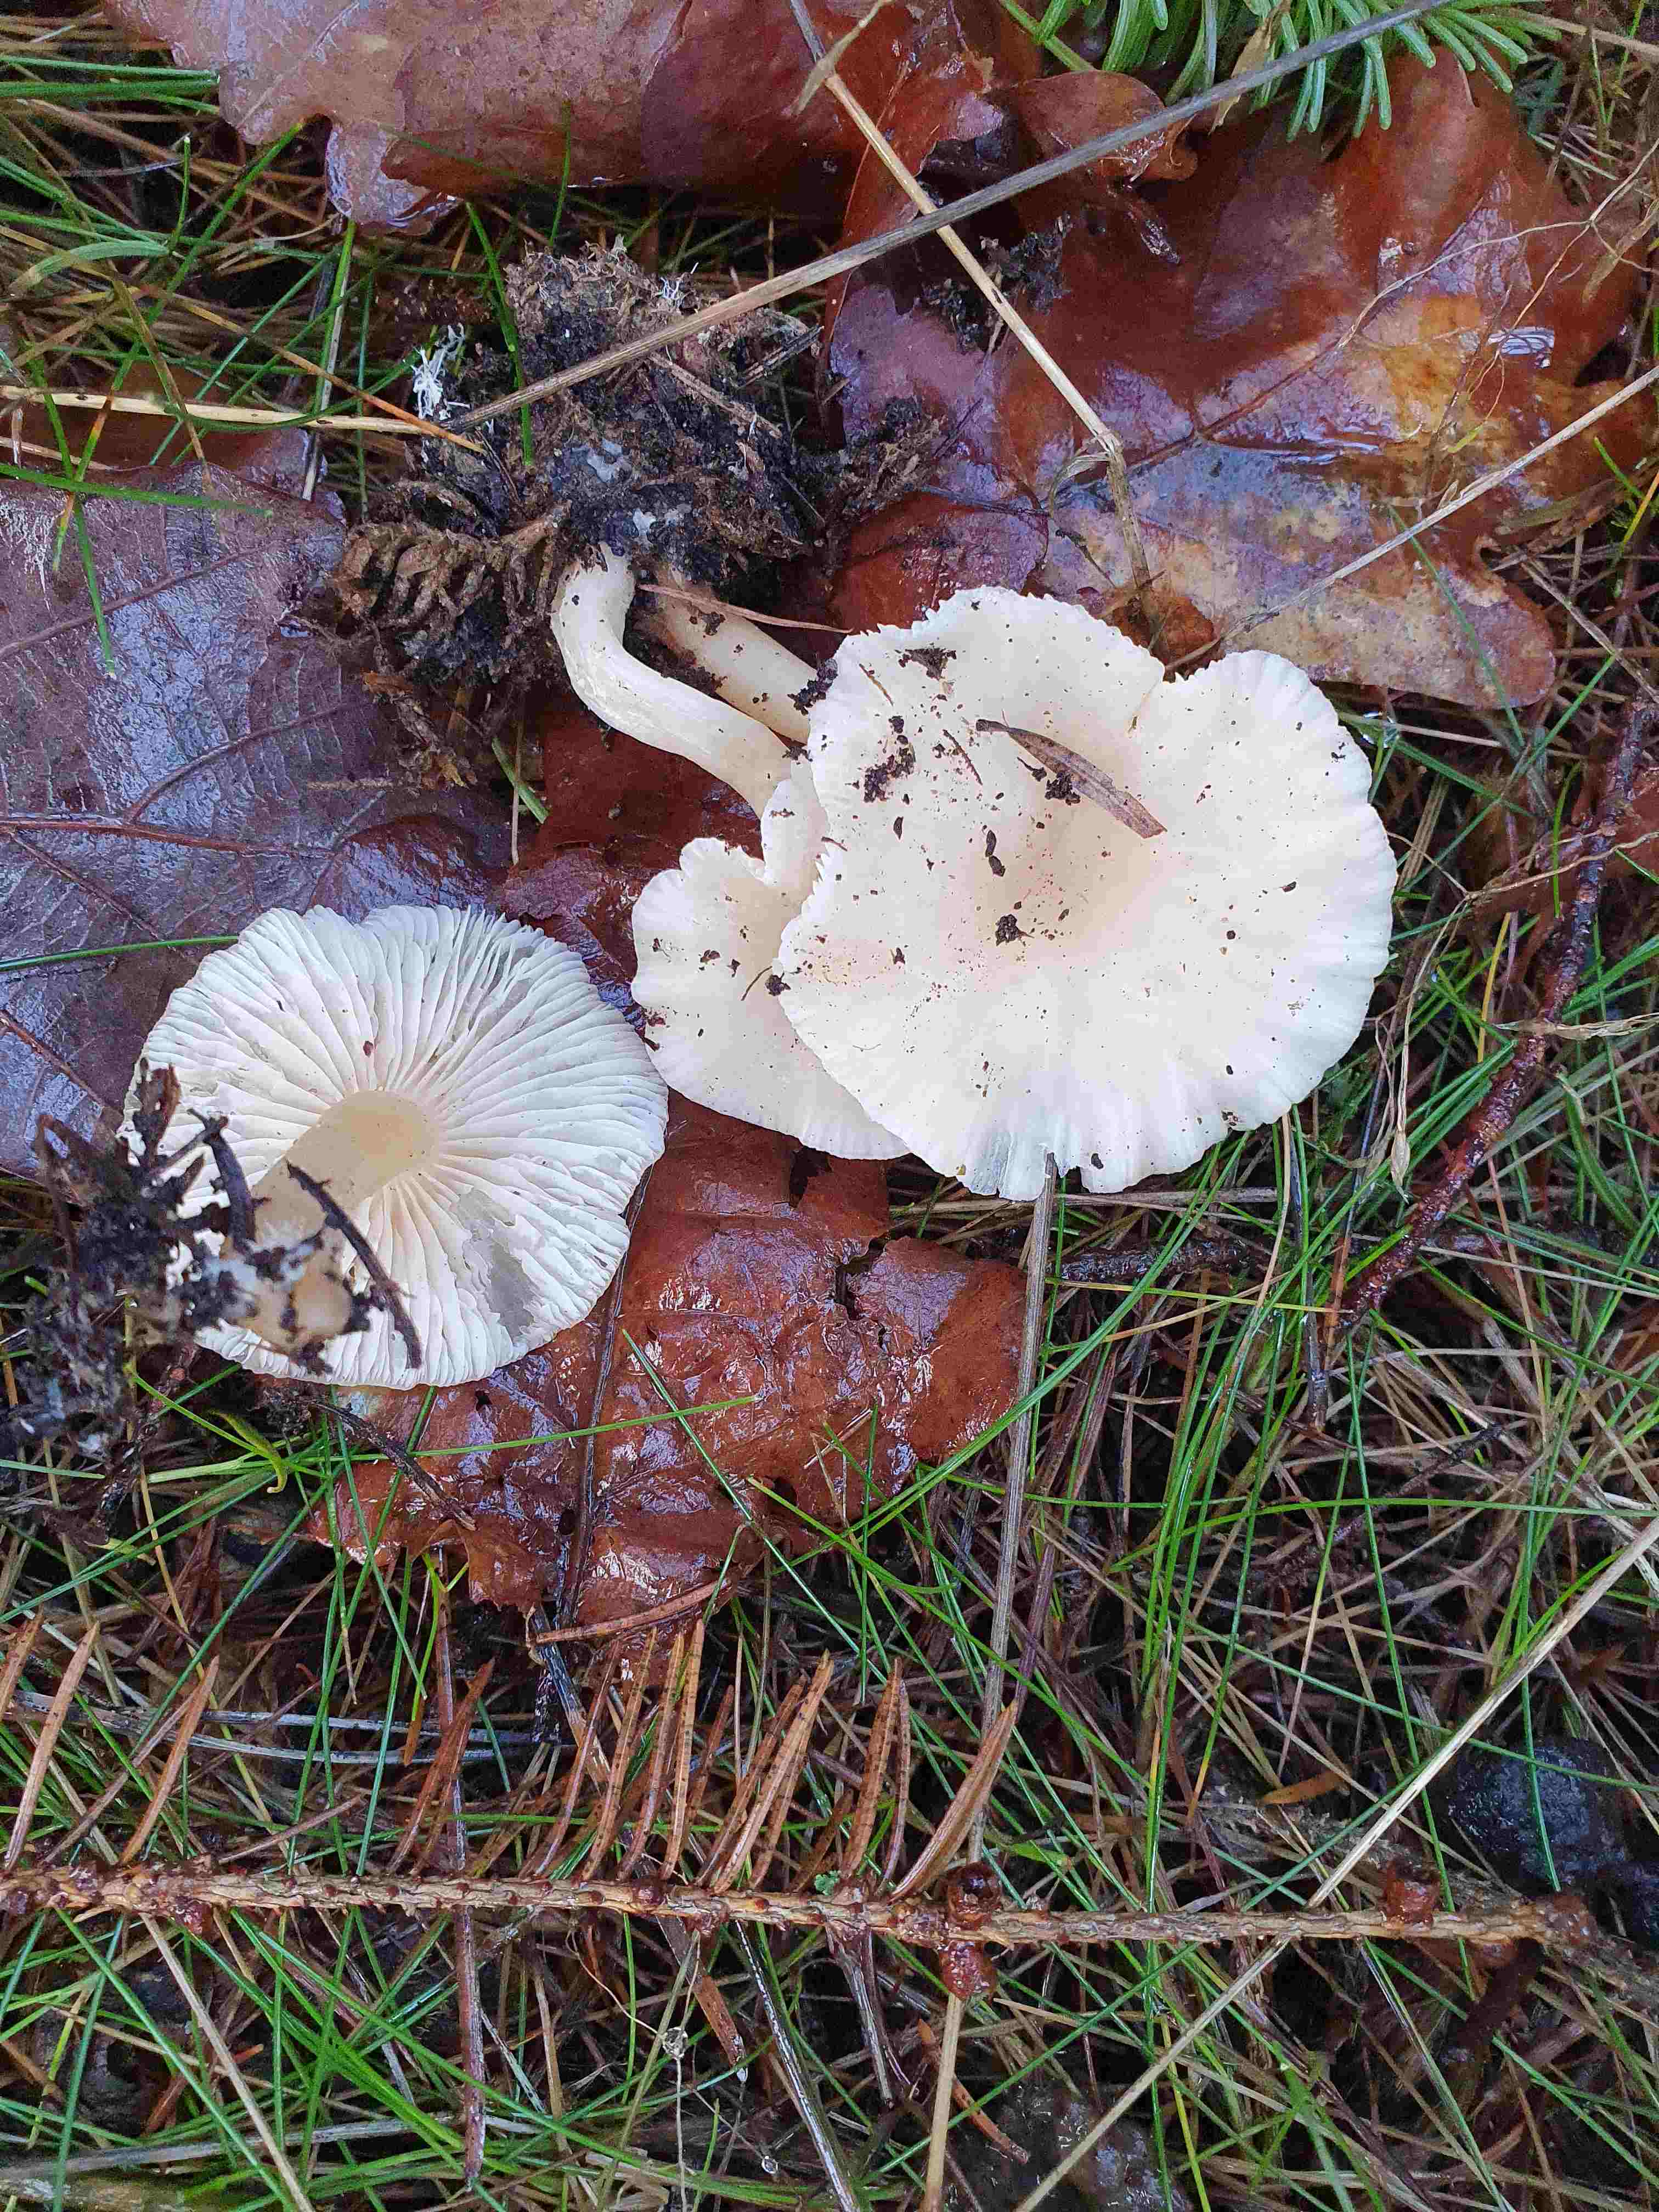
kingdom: Fungi
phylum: Basidiomycota
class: Agaricomycetes
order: Agaricales
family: Tricholomataceae
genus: Clitocybe
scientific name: Clitocybe fragrans
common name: vellugtende tragthat
